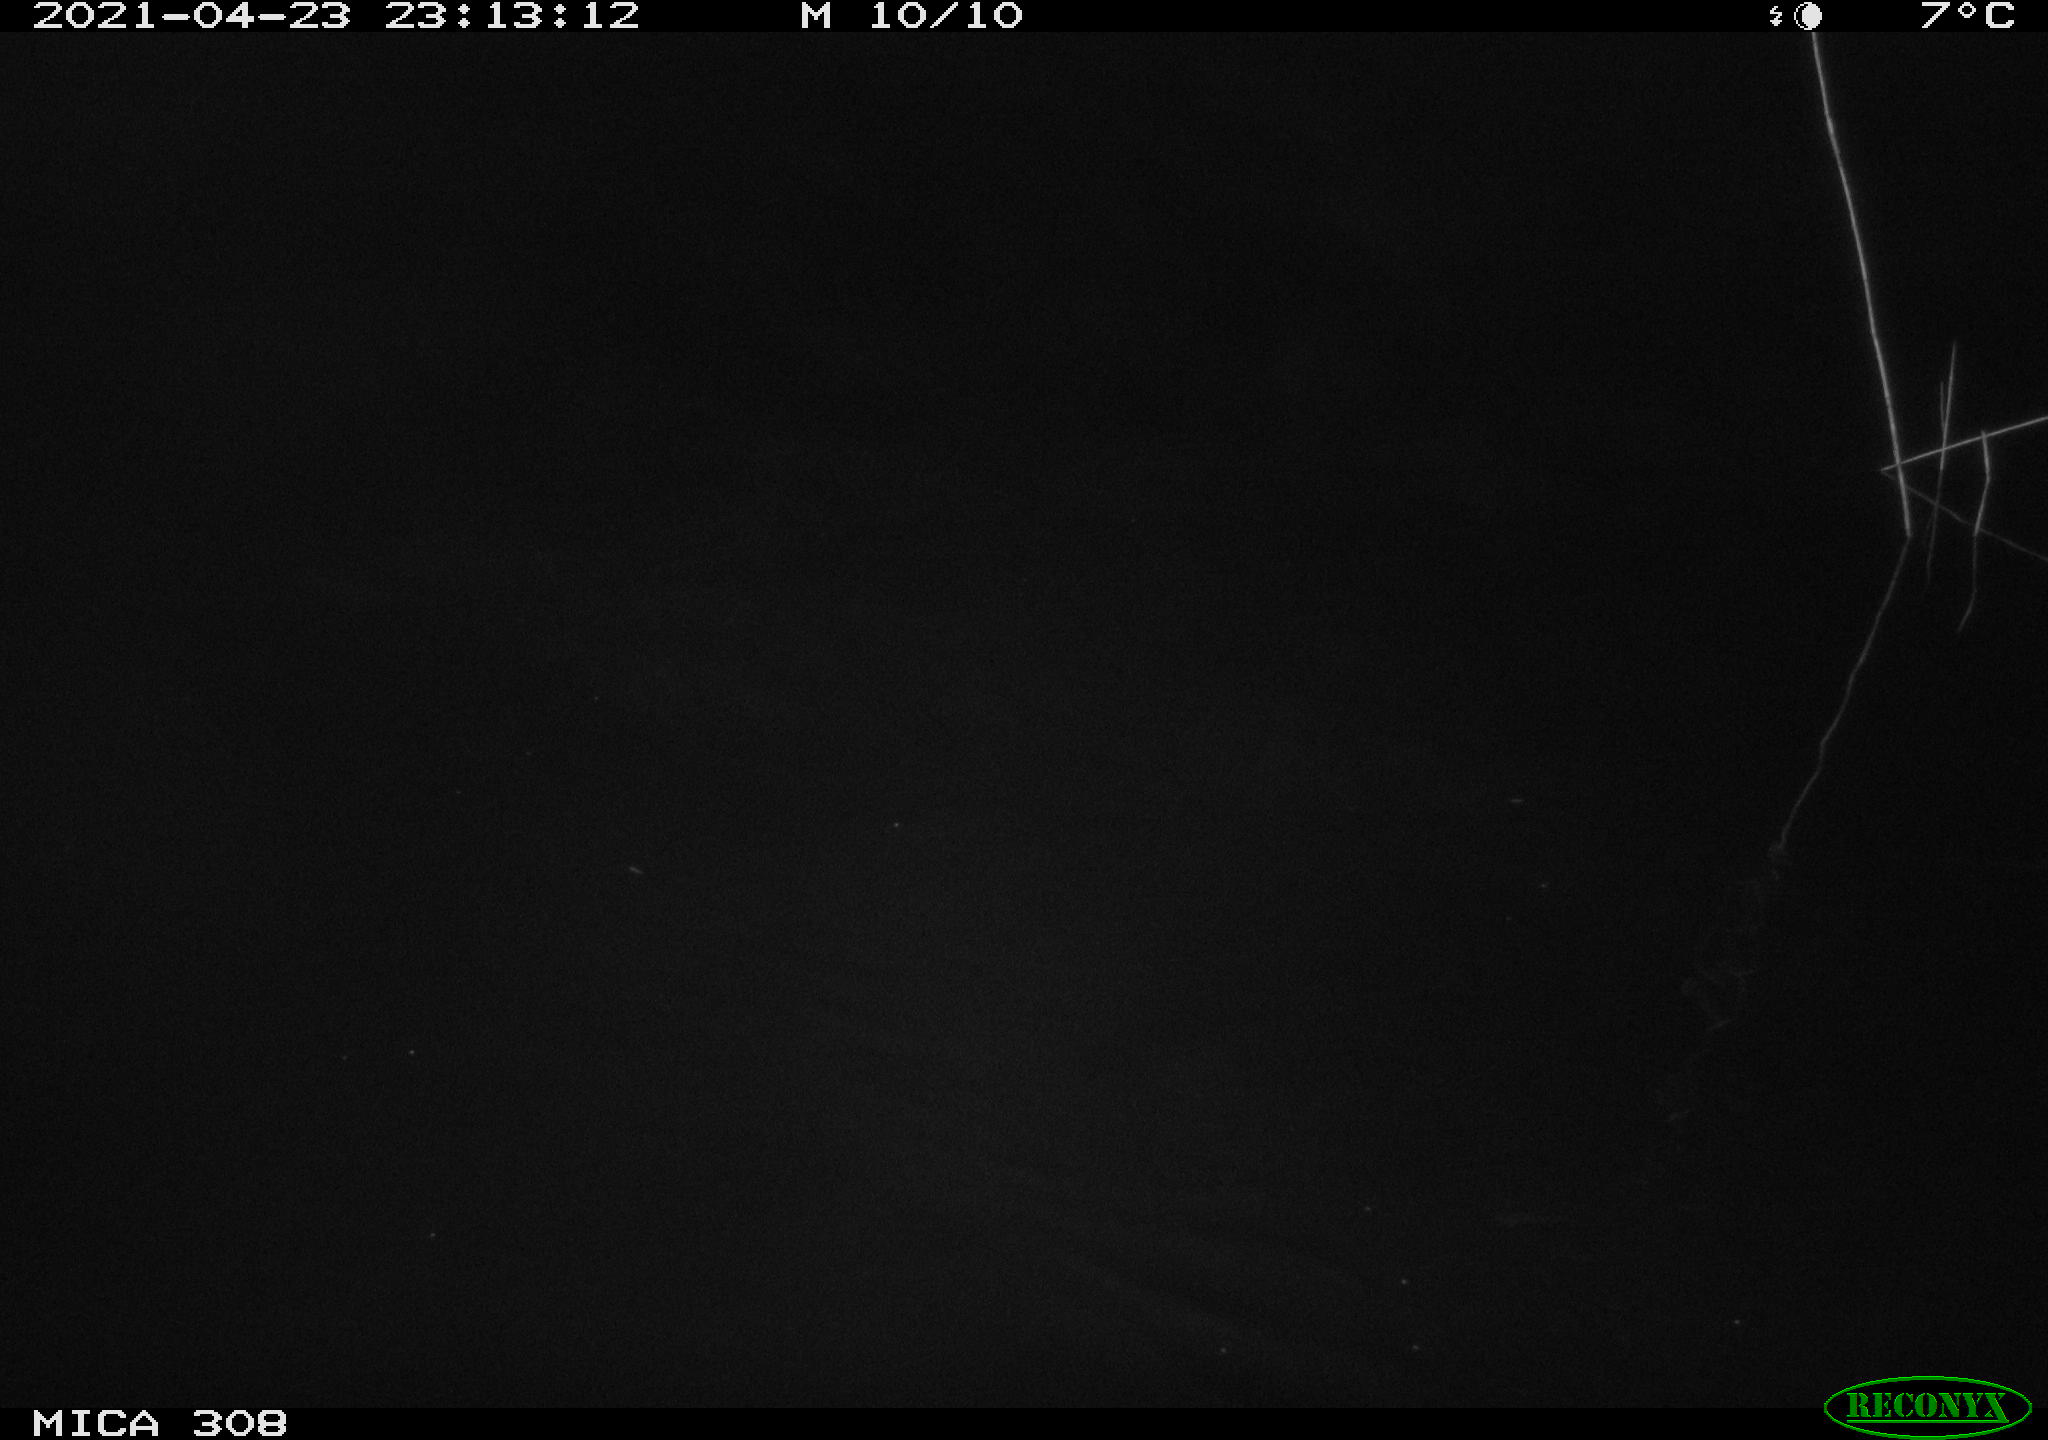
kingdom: Animalia
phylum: Chordata
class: Aves
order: Anseriformes
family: Anatidae
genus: Anas
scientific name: Anas platyrhynchos
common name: Mallard
